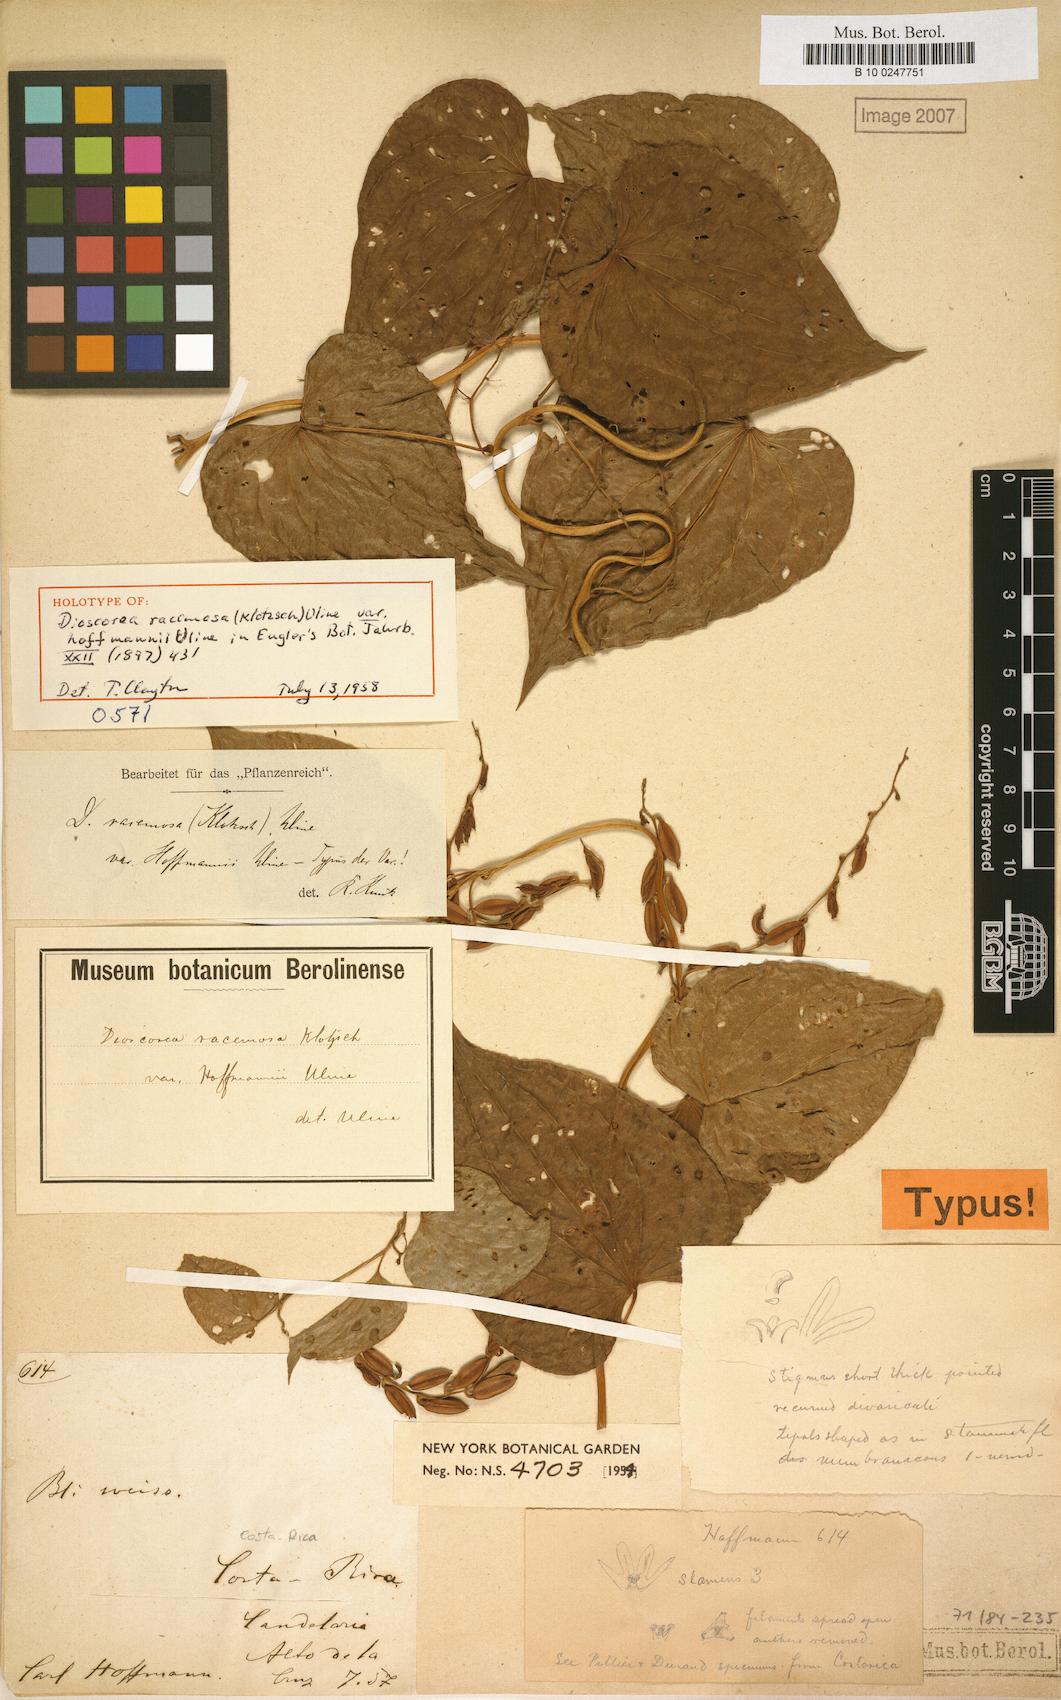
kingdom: Plantae
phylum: Tracheophyta
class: Liliopsida
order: Dioscoreales
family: Dioscoreaceae
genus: Dioscorea
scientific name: Dioscorea lepida
